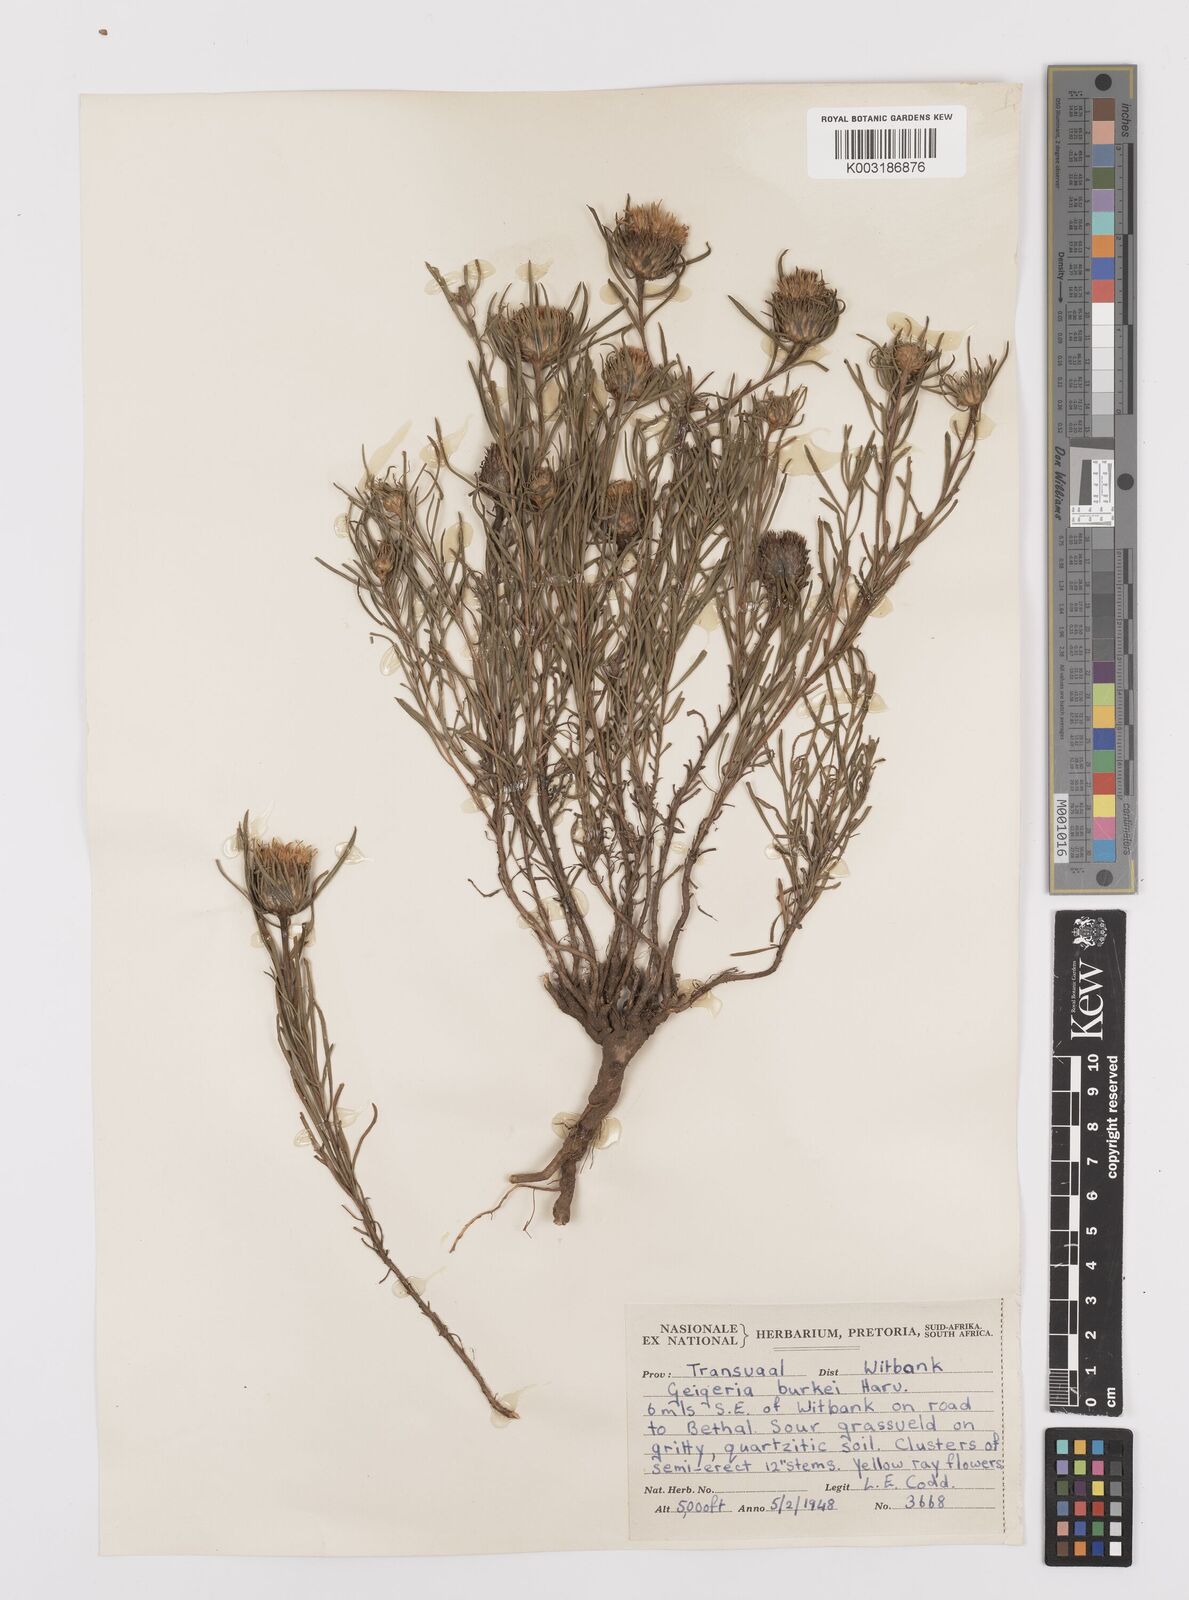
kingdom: Plantae
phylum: Tracheophyta
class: Magnoliopsida
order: Asterales
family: Asteraceae
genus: Geigeria
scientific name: Geigeria burkei
